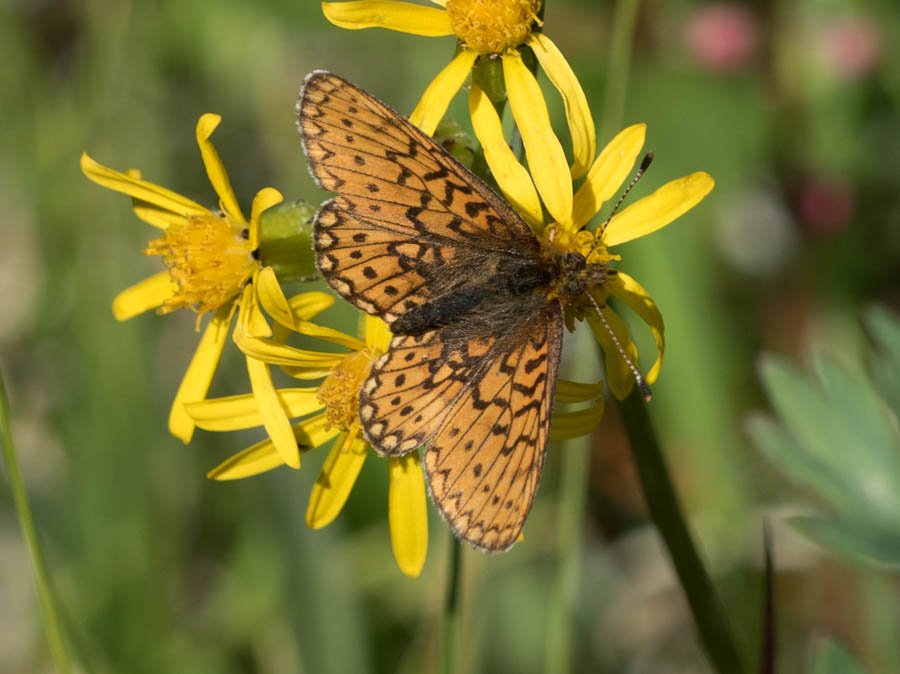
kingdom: Animalia
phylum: Arthropoda
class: Insecta
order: Lepidoptera
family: Nymphalidae
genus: Boloria
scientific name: Boloria eunomia
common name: Bog Fritillary
